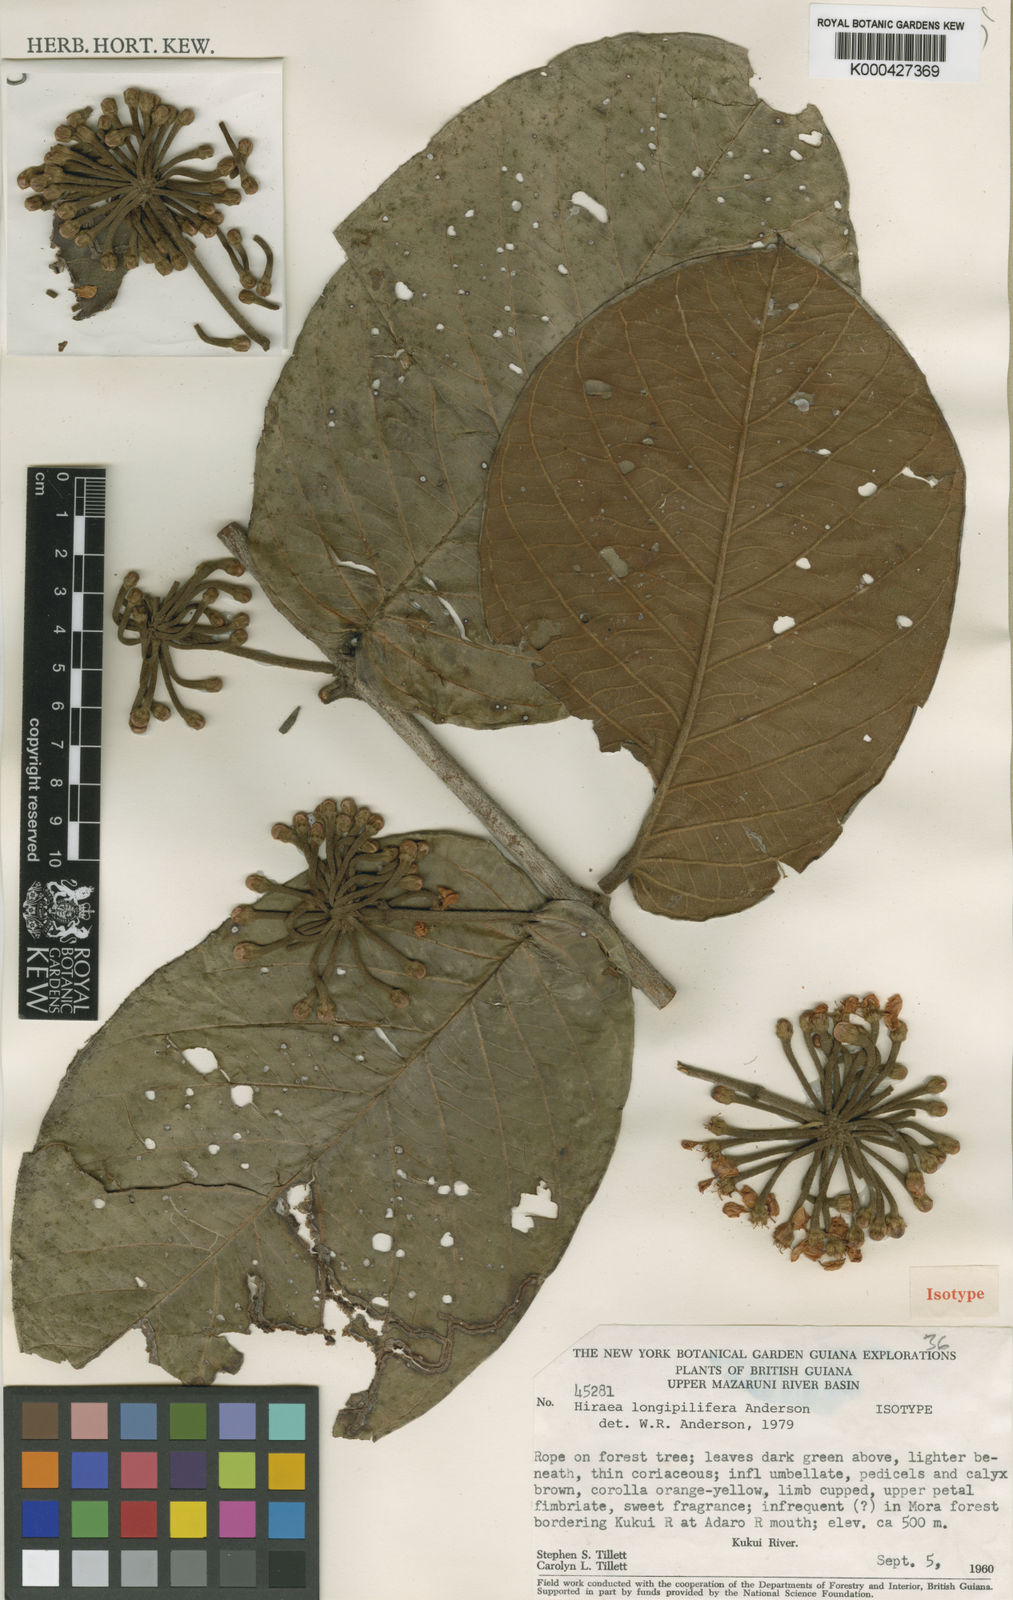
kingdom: Plantae
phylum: Tracheophyta
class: Magnoliopsida
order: Malpighiales
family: Malpighiaceae
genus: Hiraea
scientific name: Hiraea longipilifera
